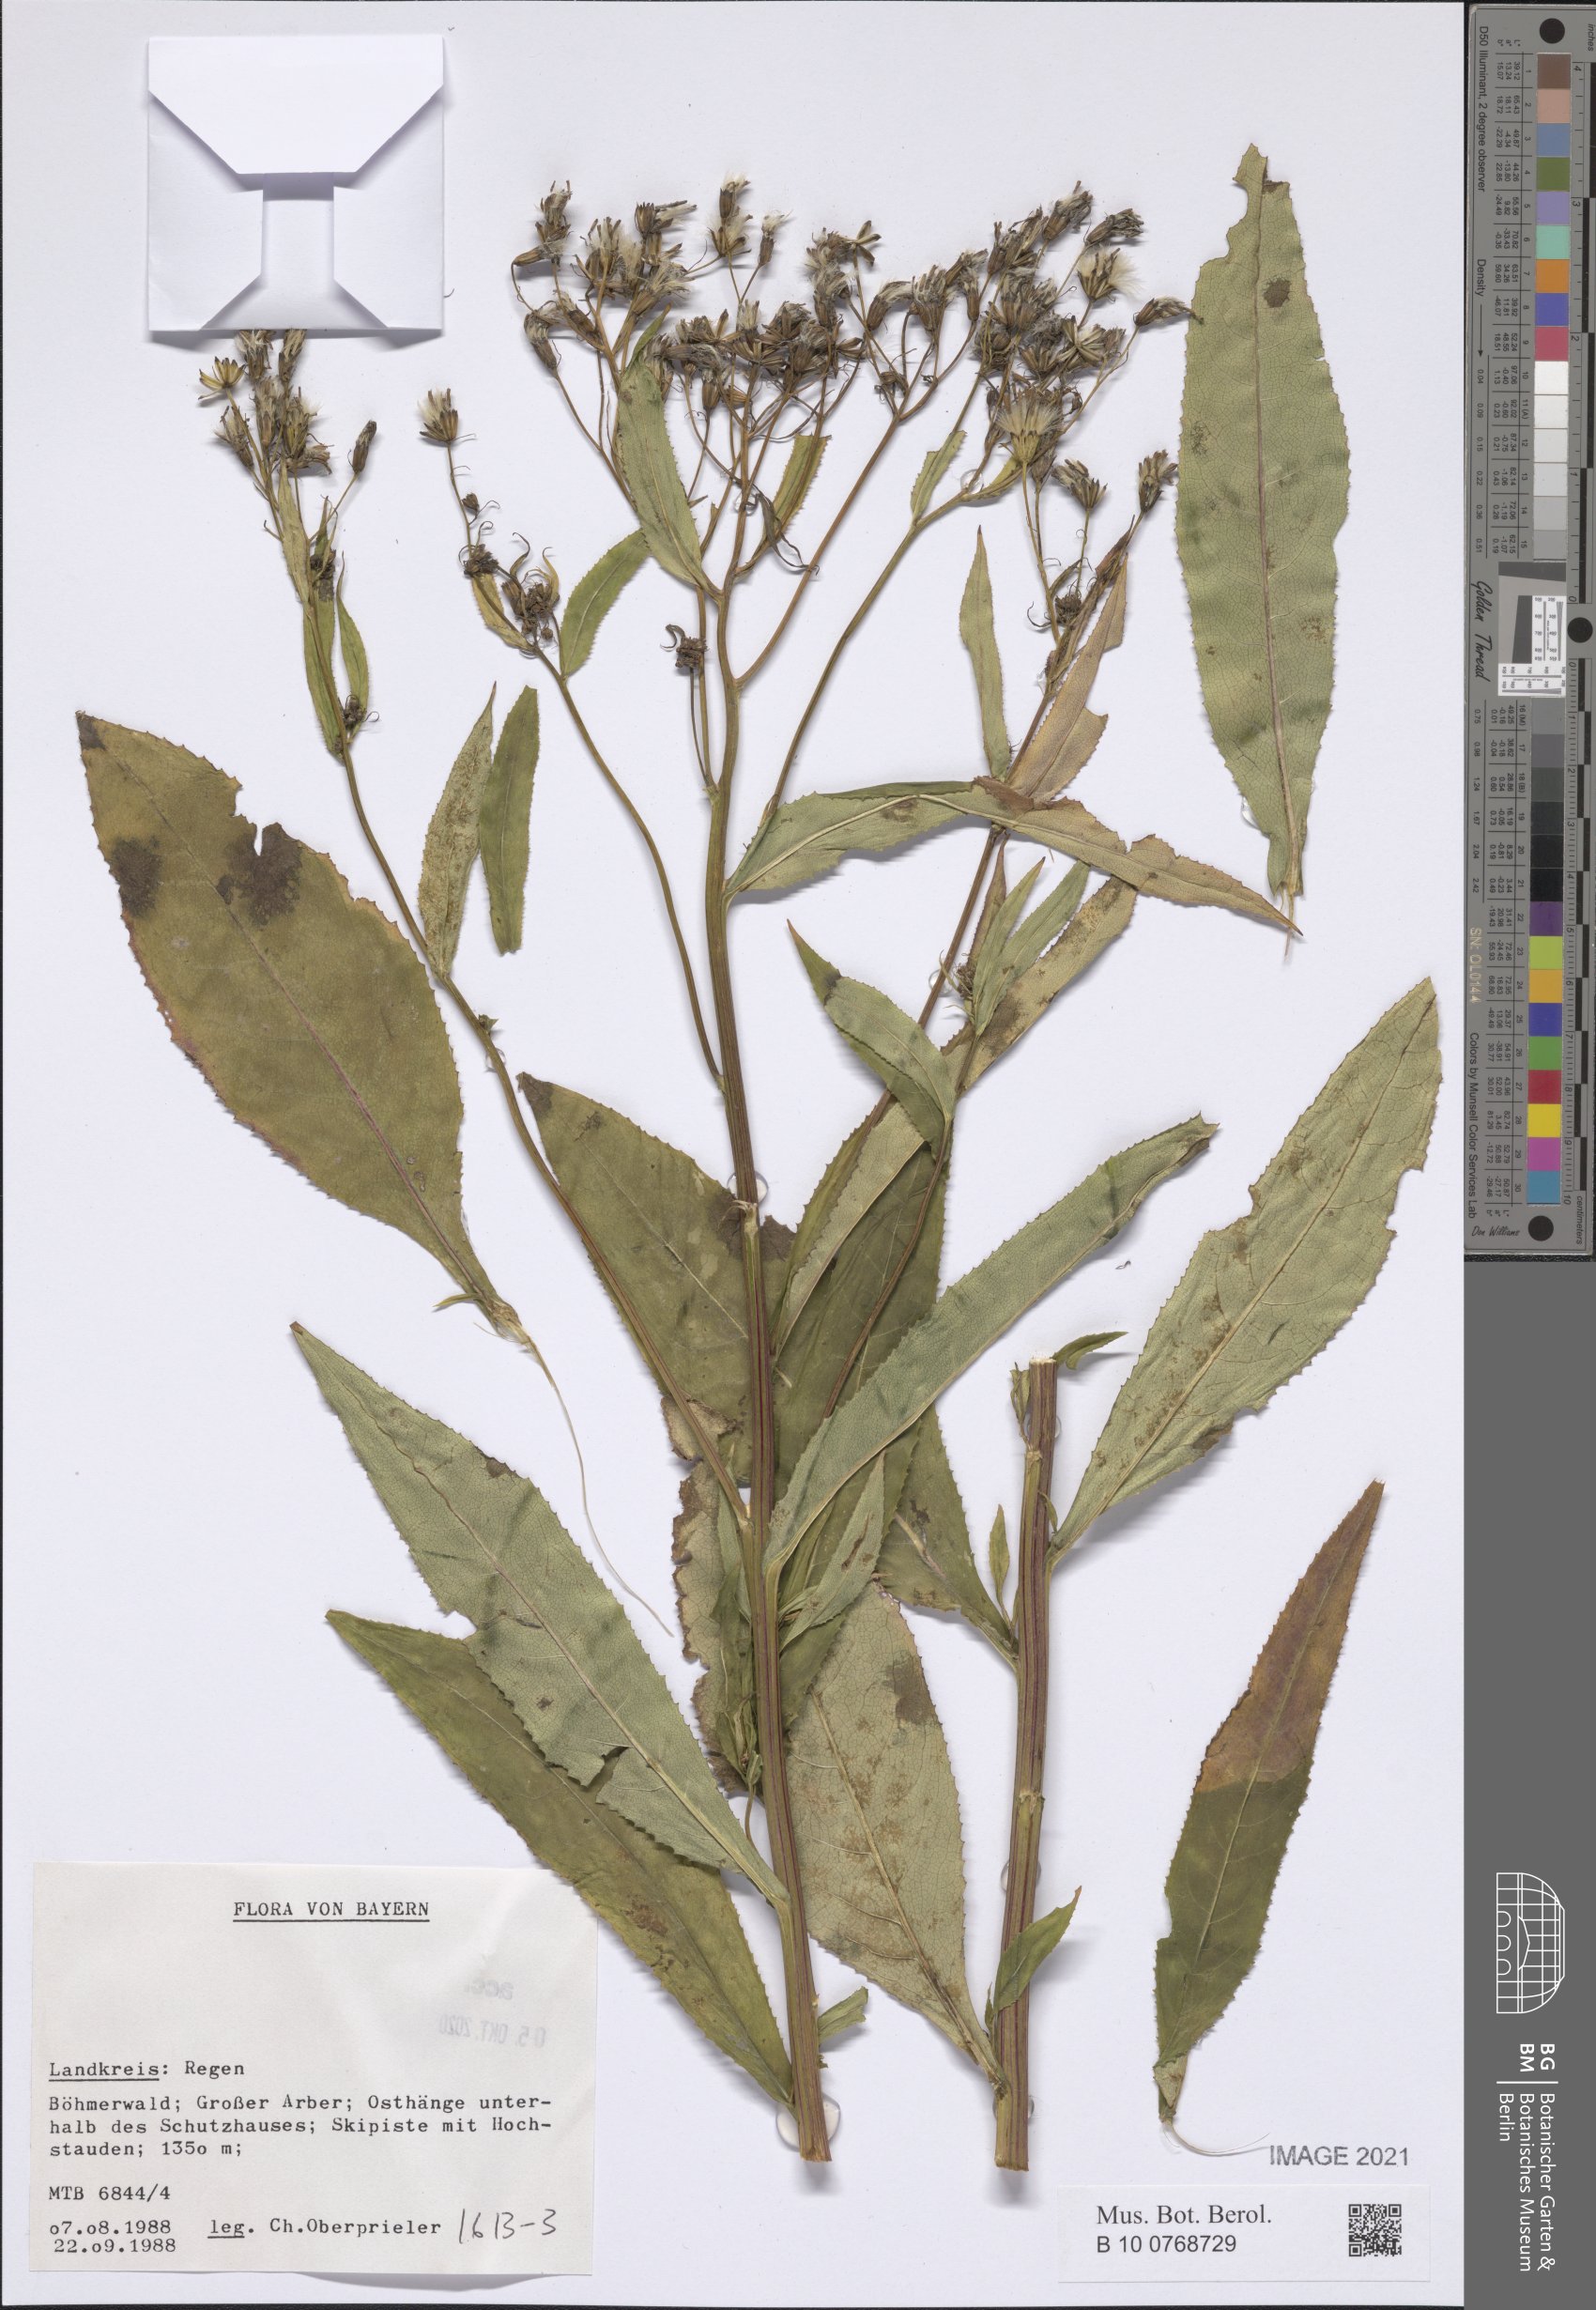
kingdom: Plantae
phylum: Tracheophyta
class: Magnoliopsida
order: Asterales
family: Asteraceae
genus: Senecio
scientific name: Senecio
